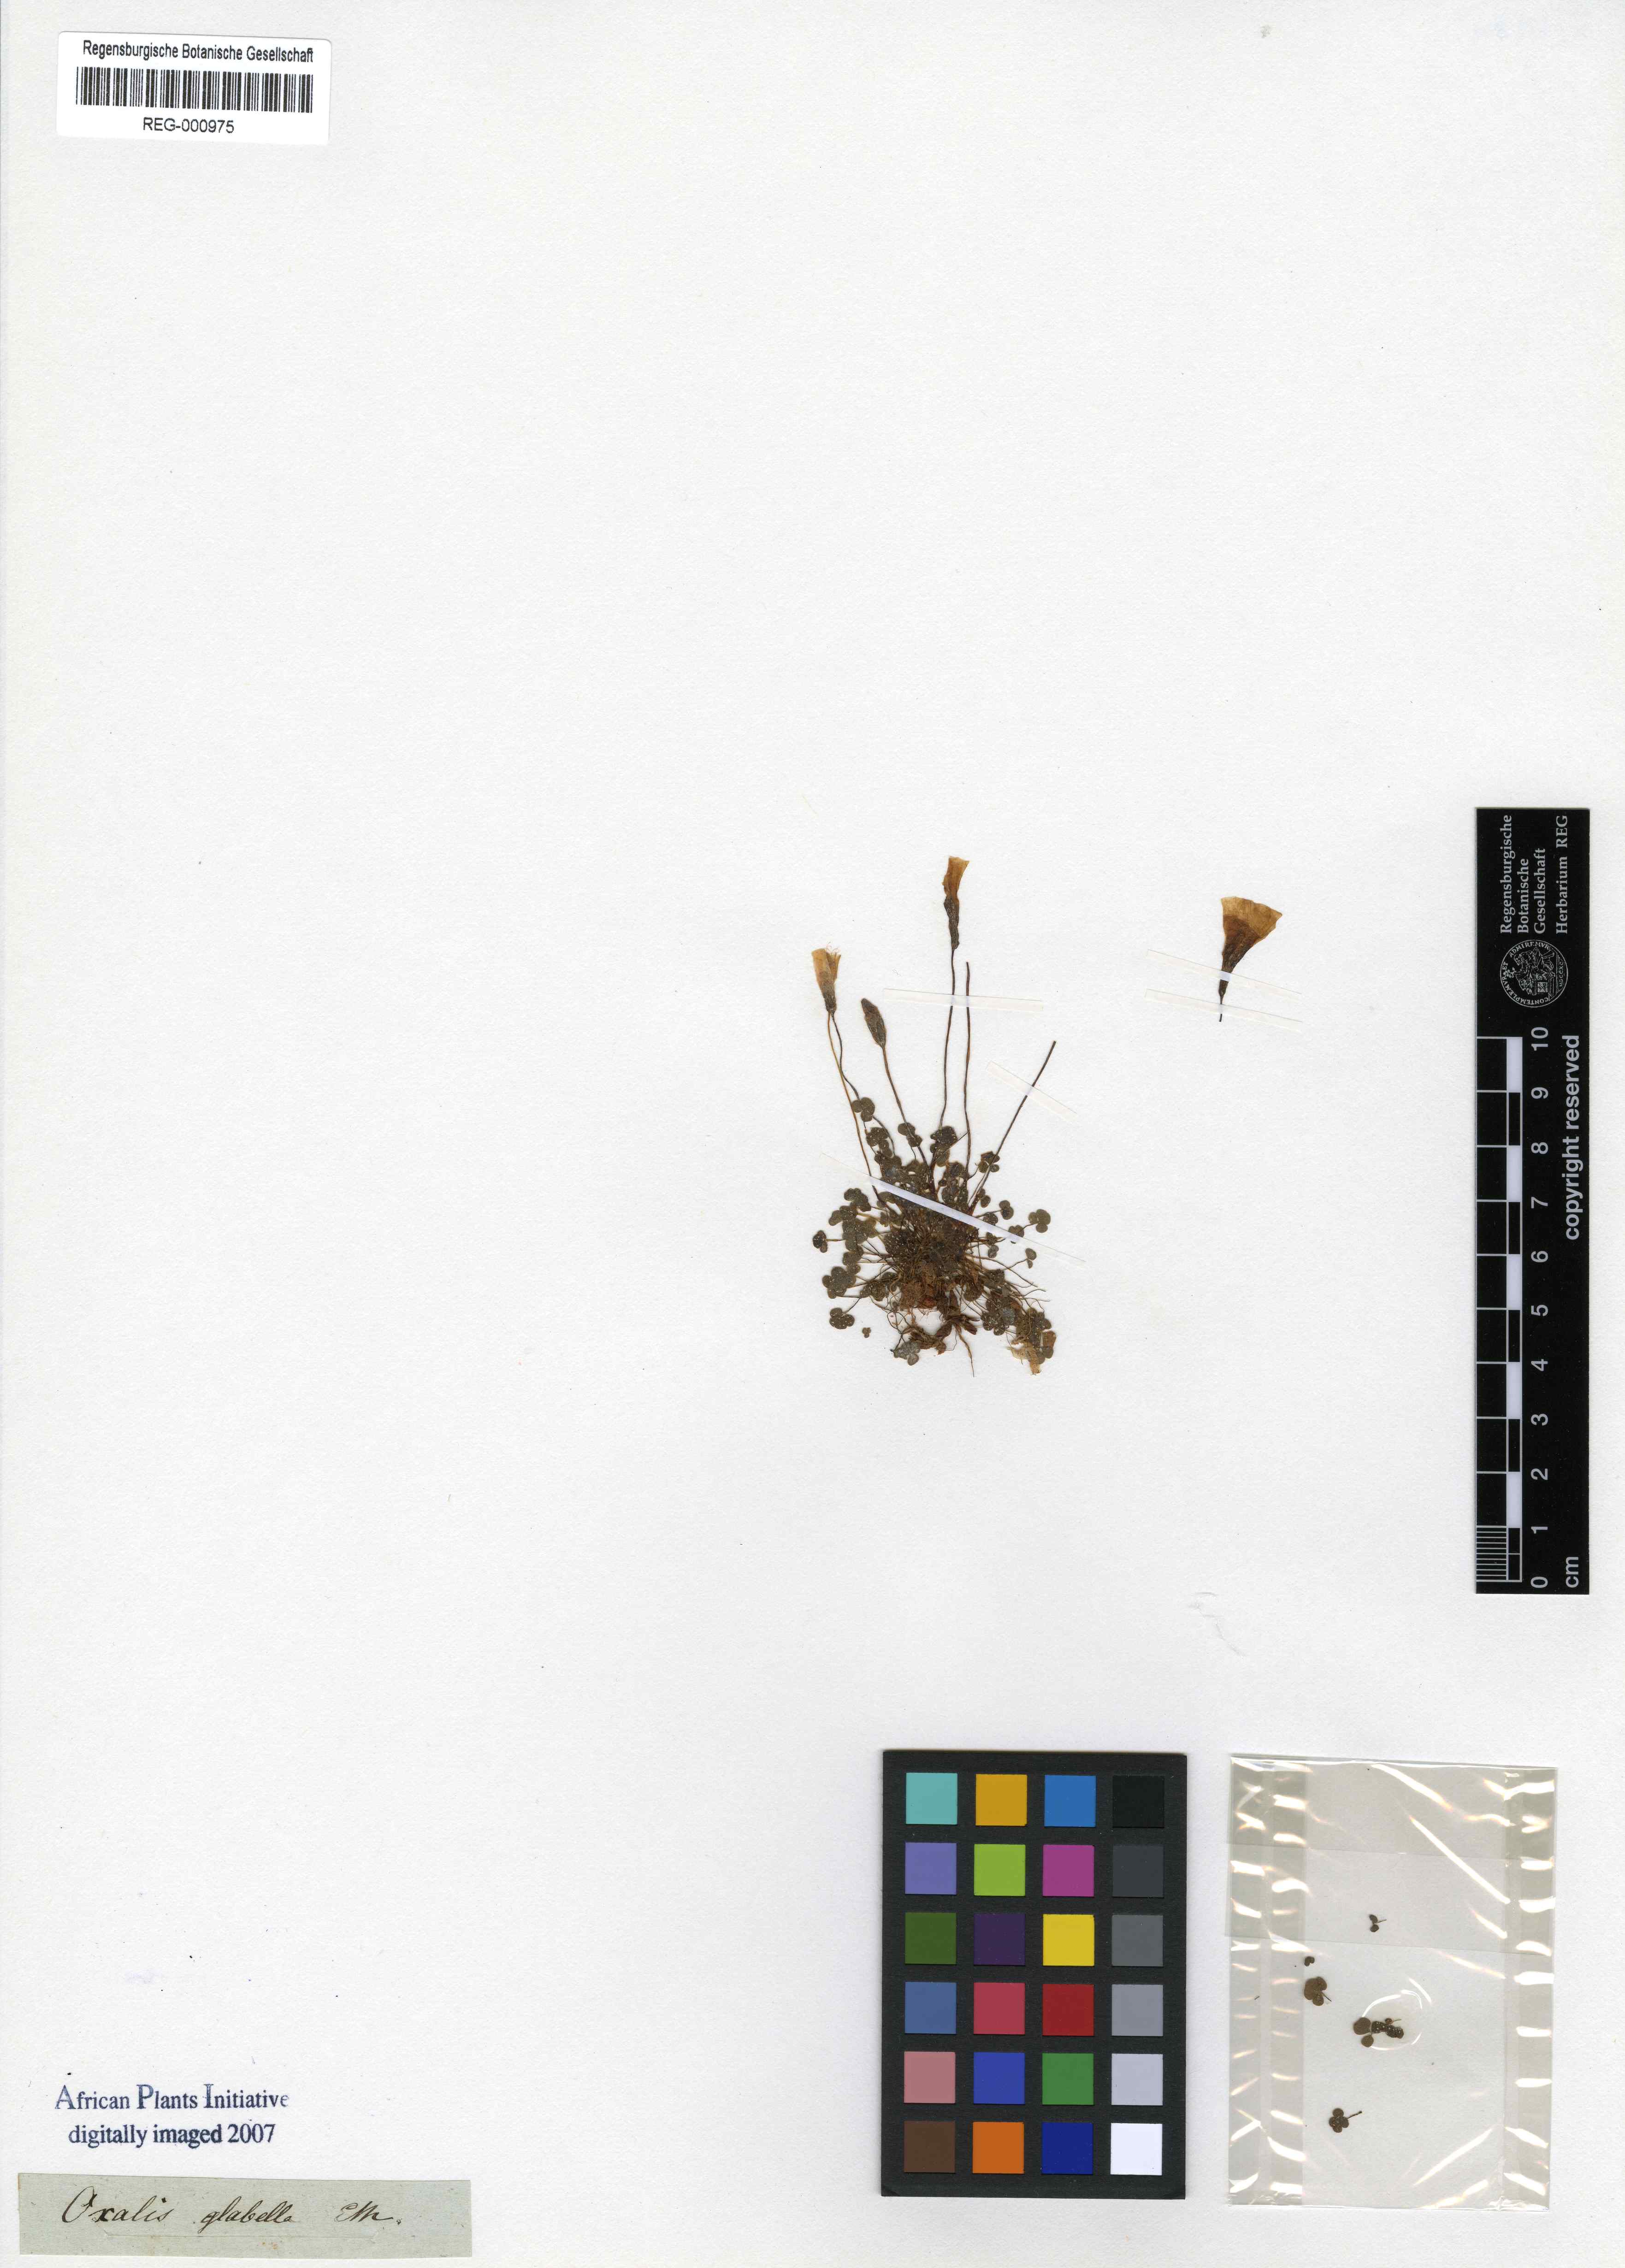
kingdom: Plantae
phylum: Tracheophyta
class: Magnoliopsida
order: Oxalidales
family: Oxalidaceae
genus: Oxalis
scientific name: Oxalis punctata
